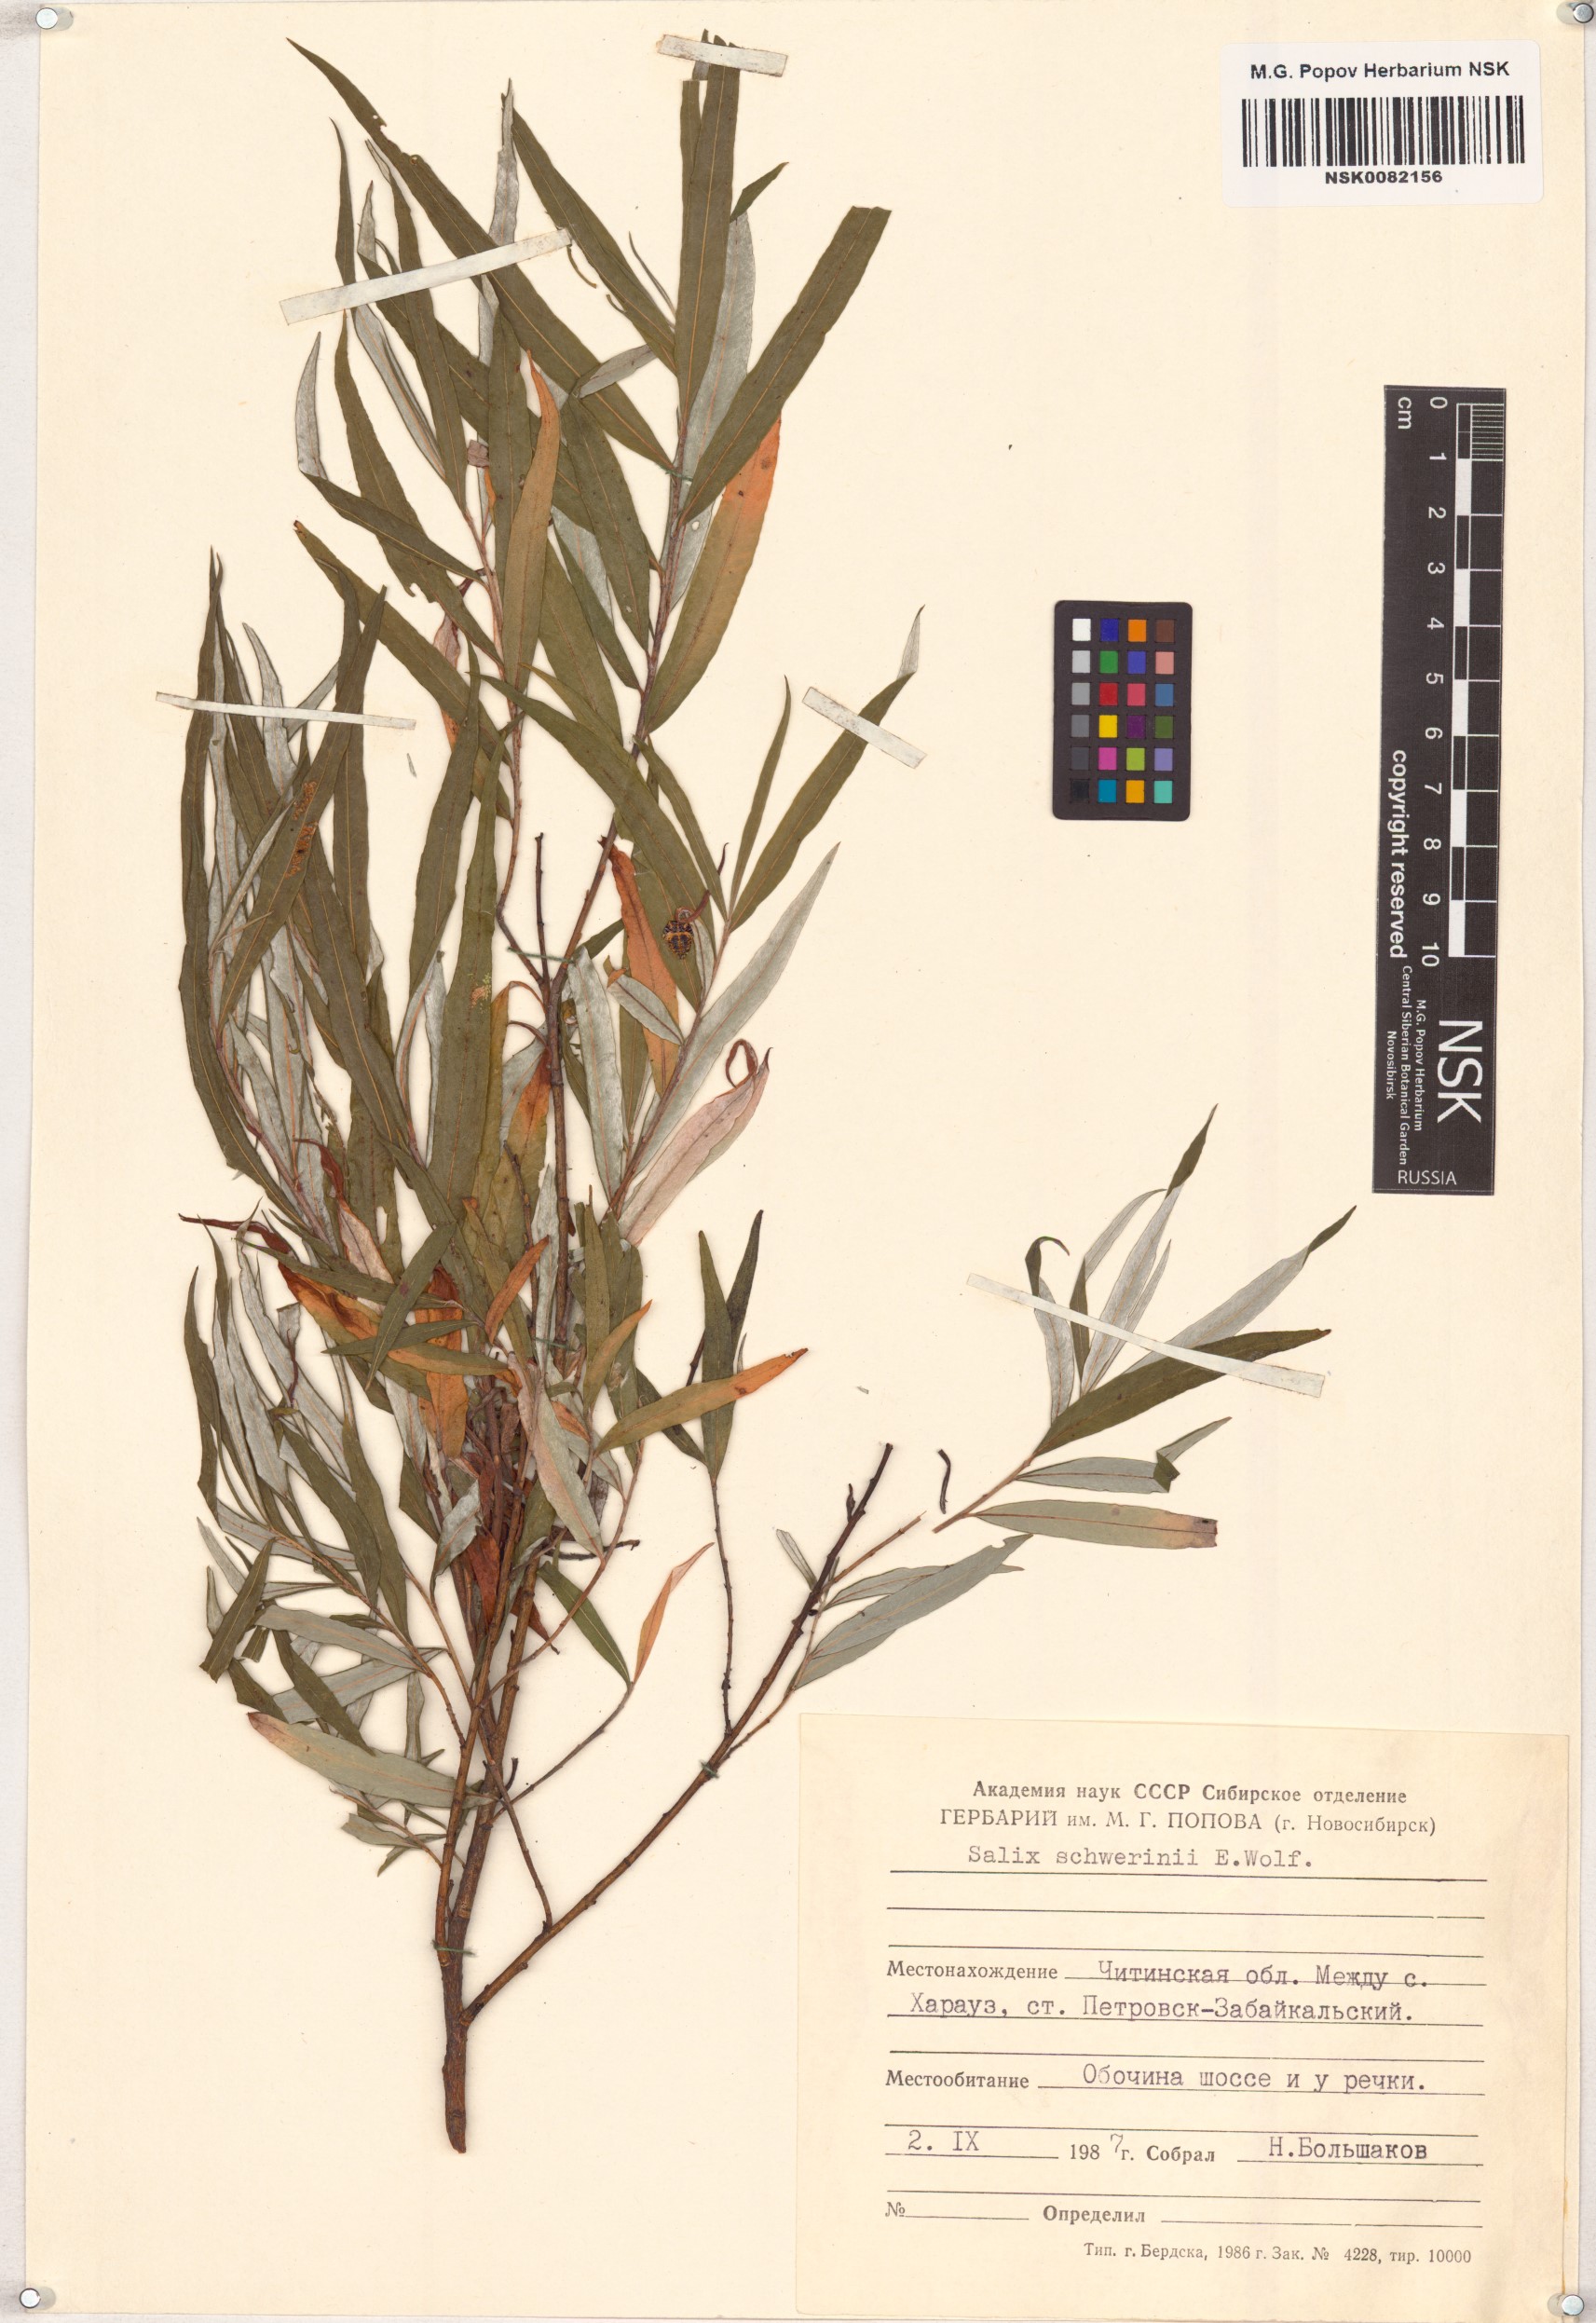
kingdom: Plantae
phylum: Tracheophyta
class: Magnoliopsida
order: Malpighiales
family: Salicaceae
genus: Salix
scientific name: Salix schwerinii
